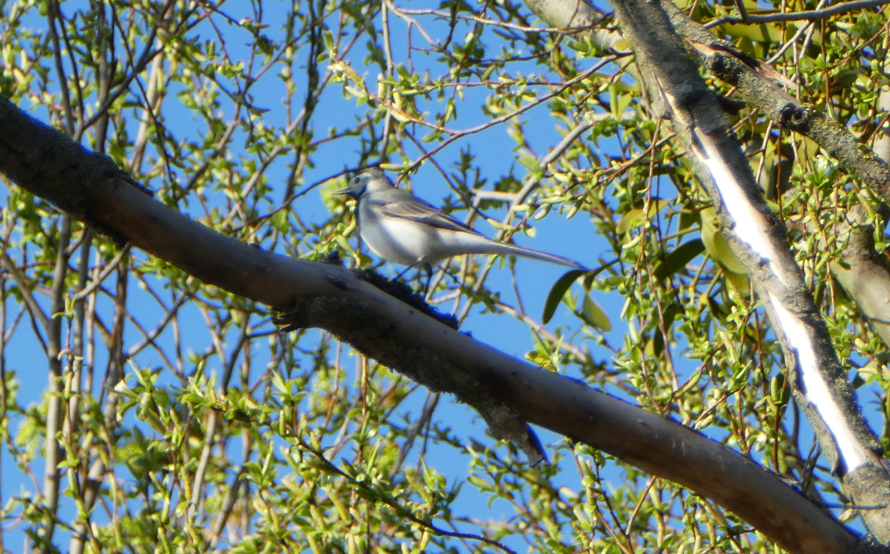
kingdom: Animalia
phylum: Chordata
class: Aves
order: Passeriformes
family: Motacillidae
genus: Motacilla
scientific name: Motacilla alba
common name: White wagtail
